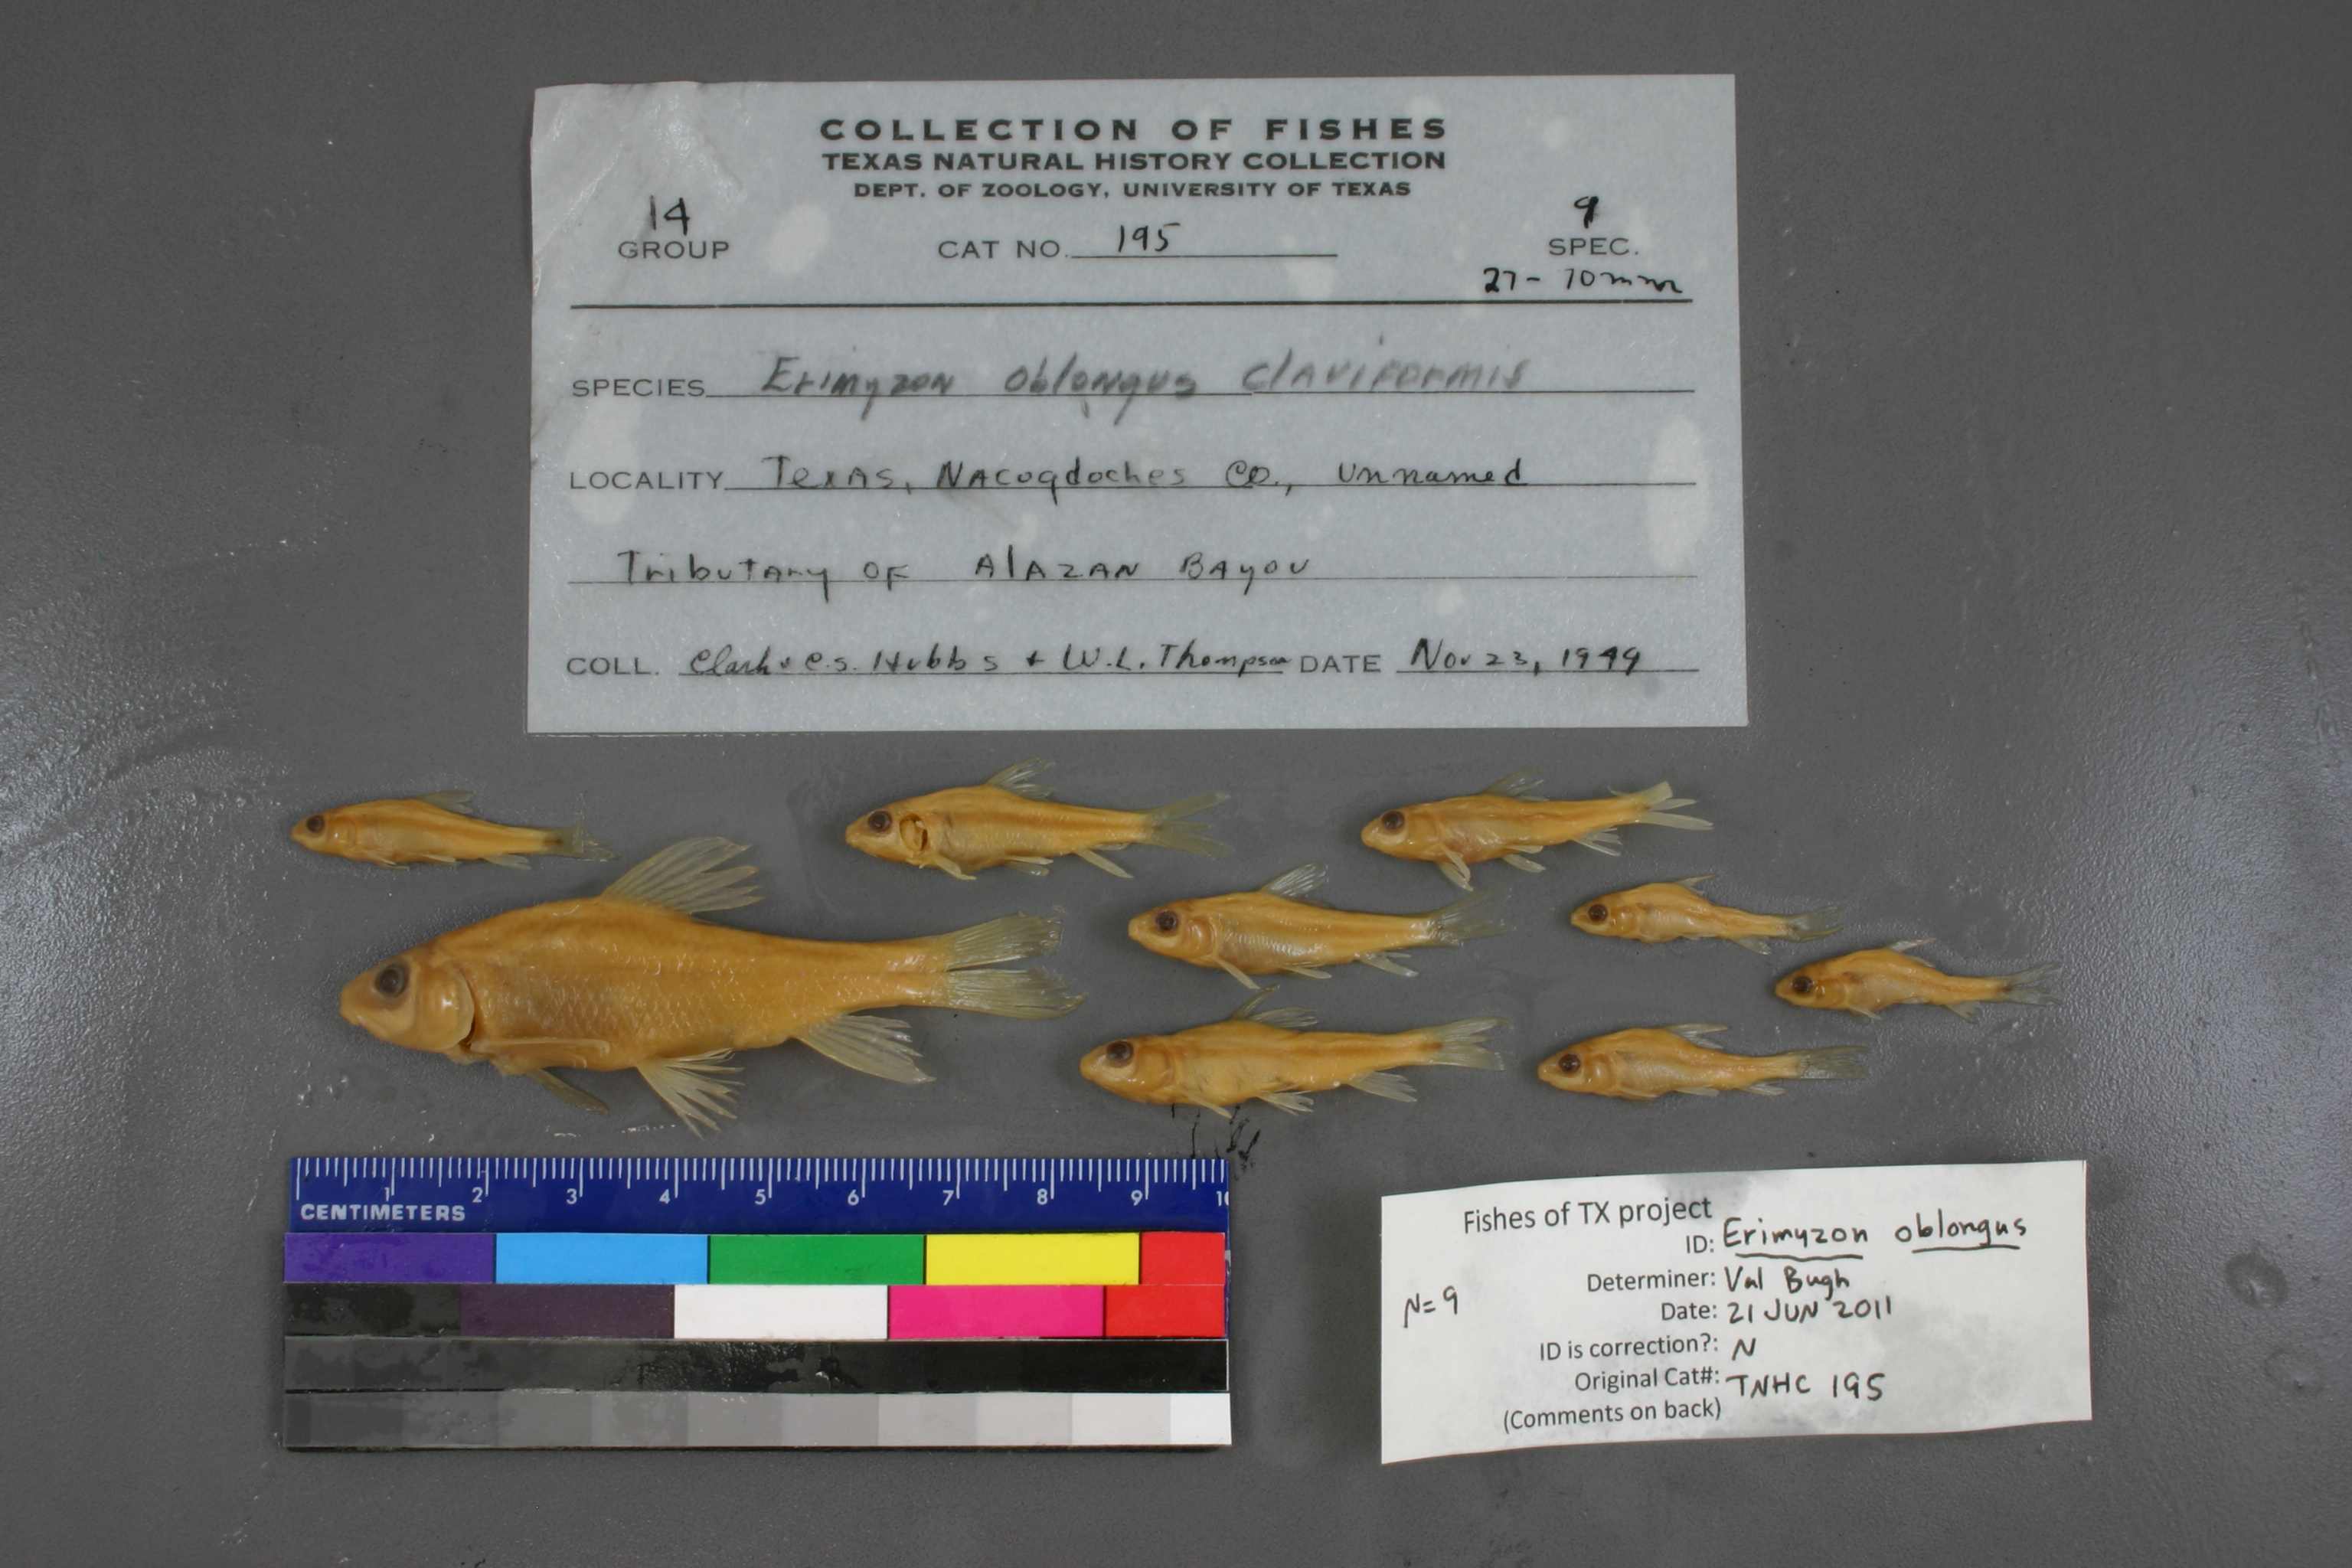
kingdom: Animalia
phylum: Chordata
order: Cypriniformes
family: Catostomidae
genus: Erimyzon
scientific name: Erimyzon claviformis
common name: Western creek chubsucker
